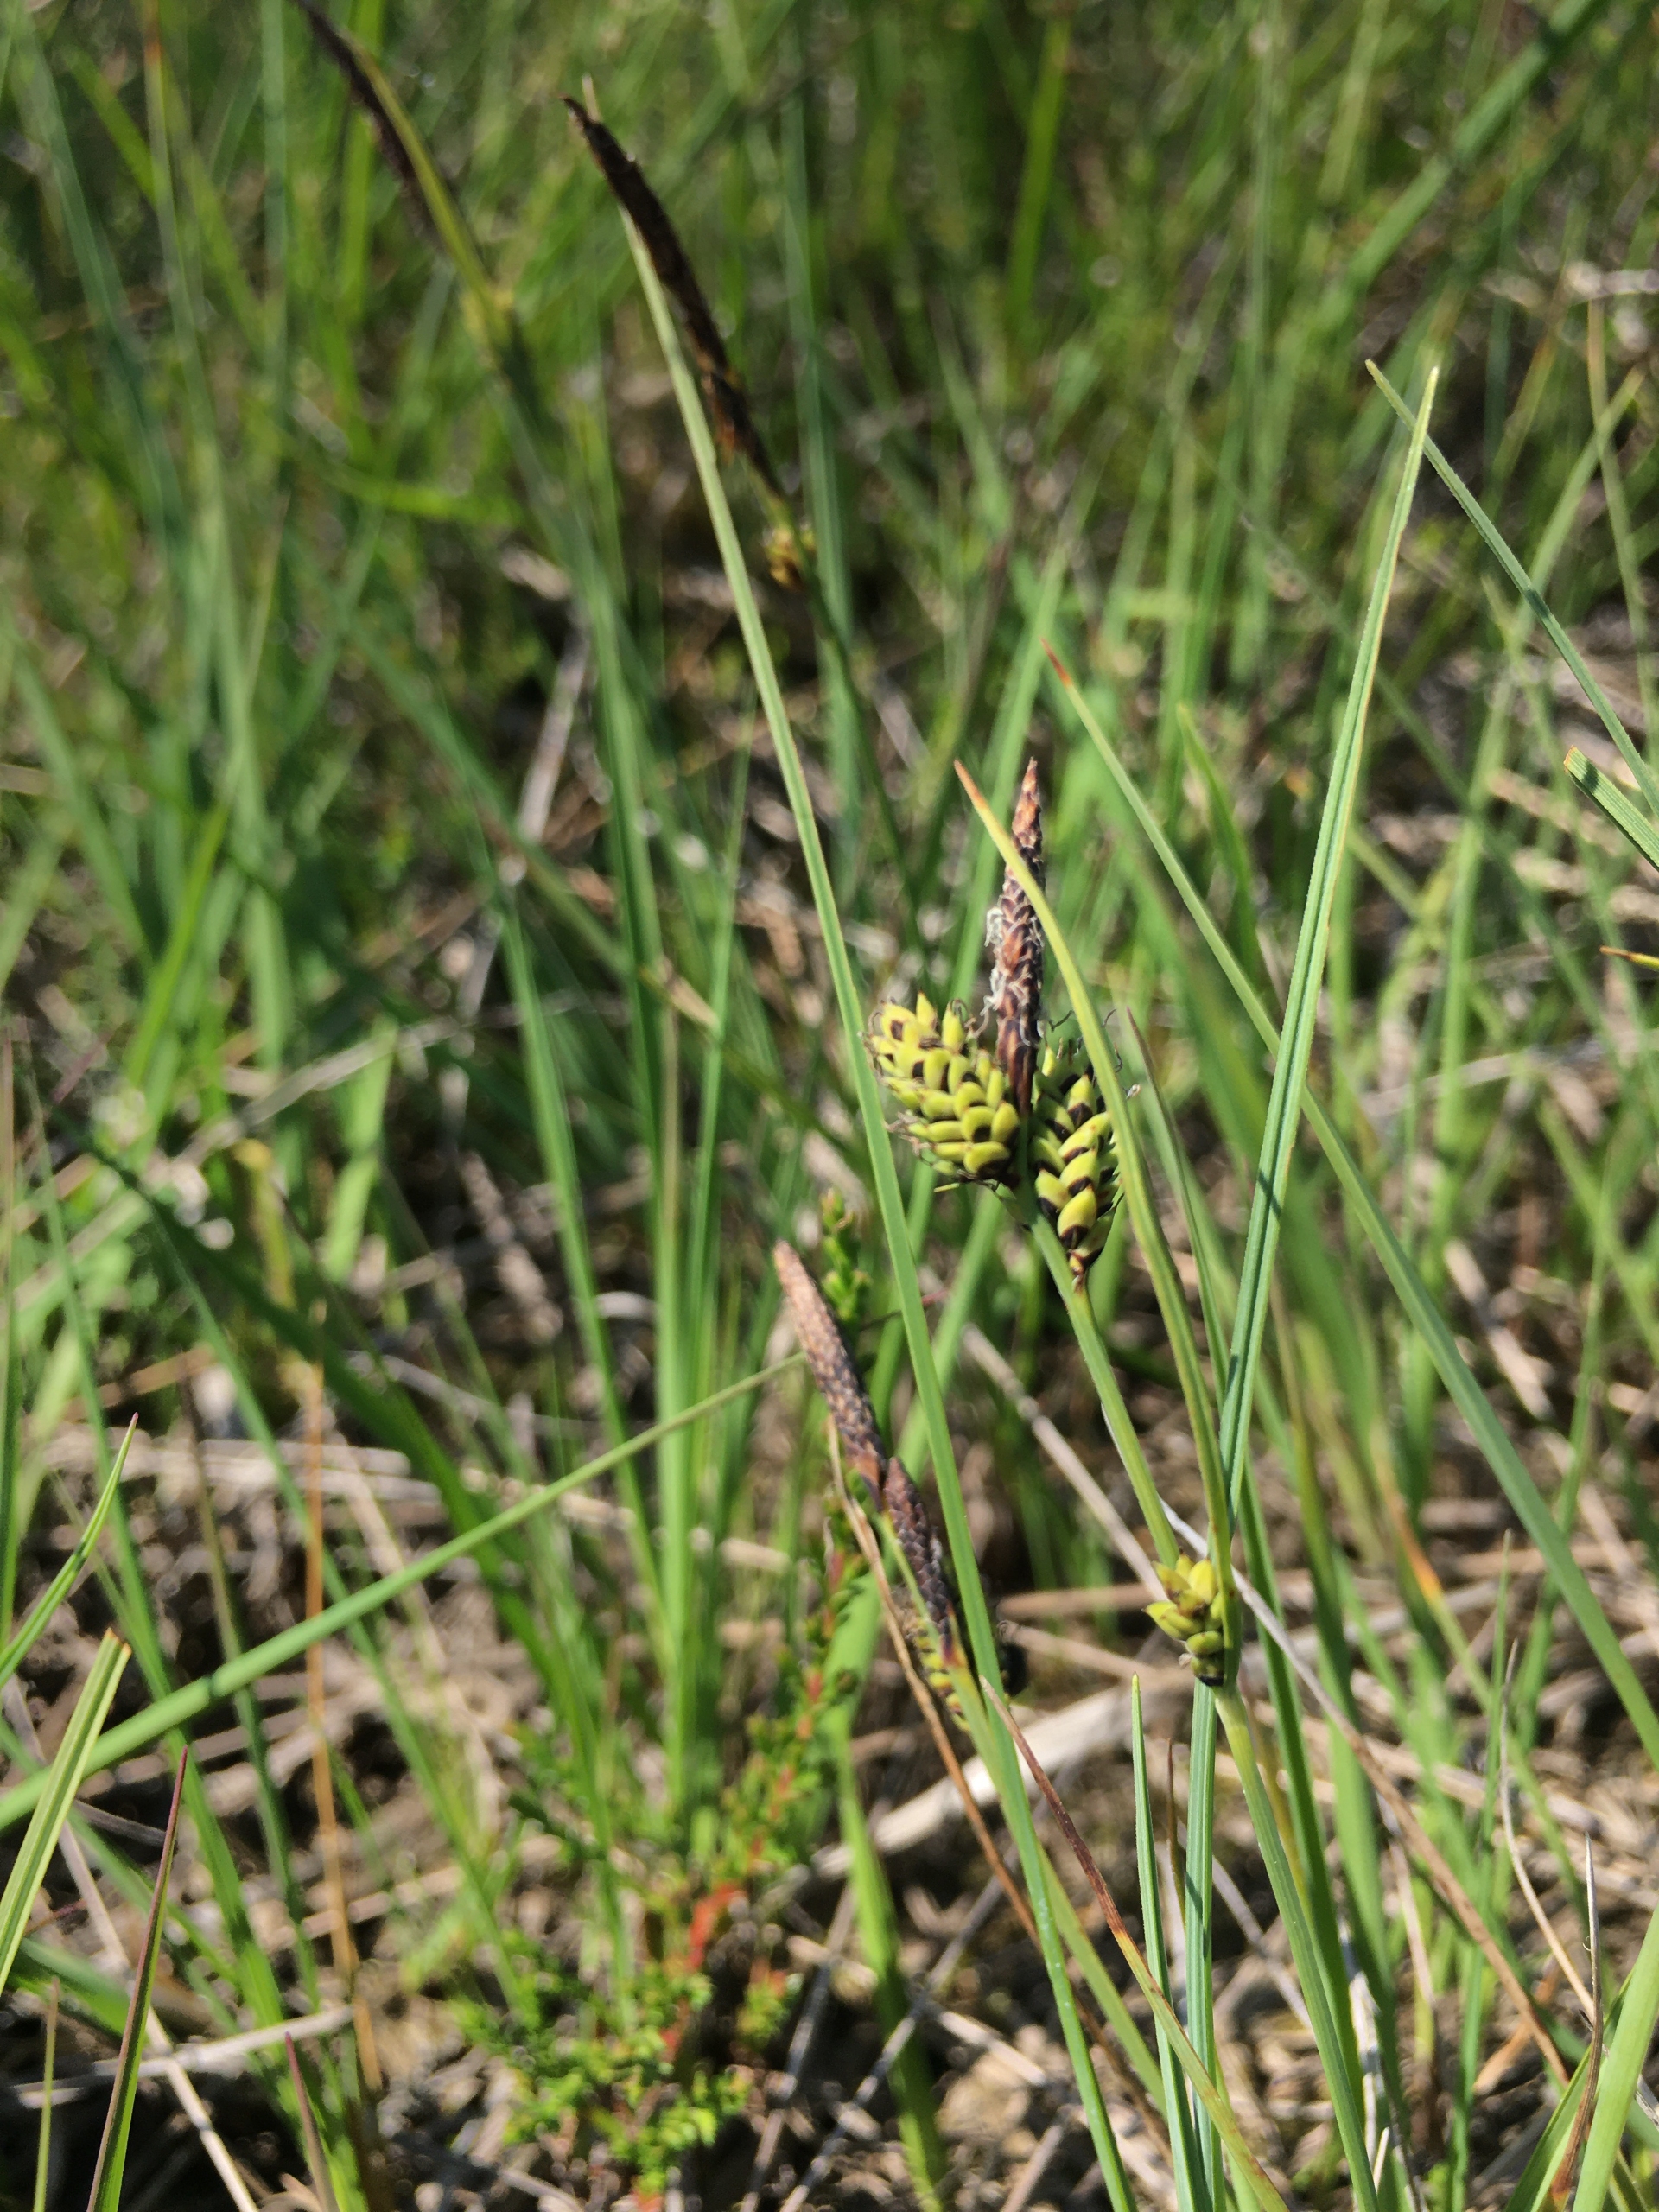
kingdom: Plantae
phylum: Tracheophyta
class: Liliopsida
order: Poales
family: Cyperaceae
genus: Carex
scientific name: Carex nigra
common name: Almindelig star
